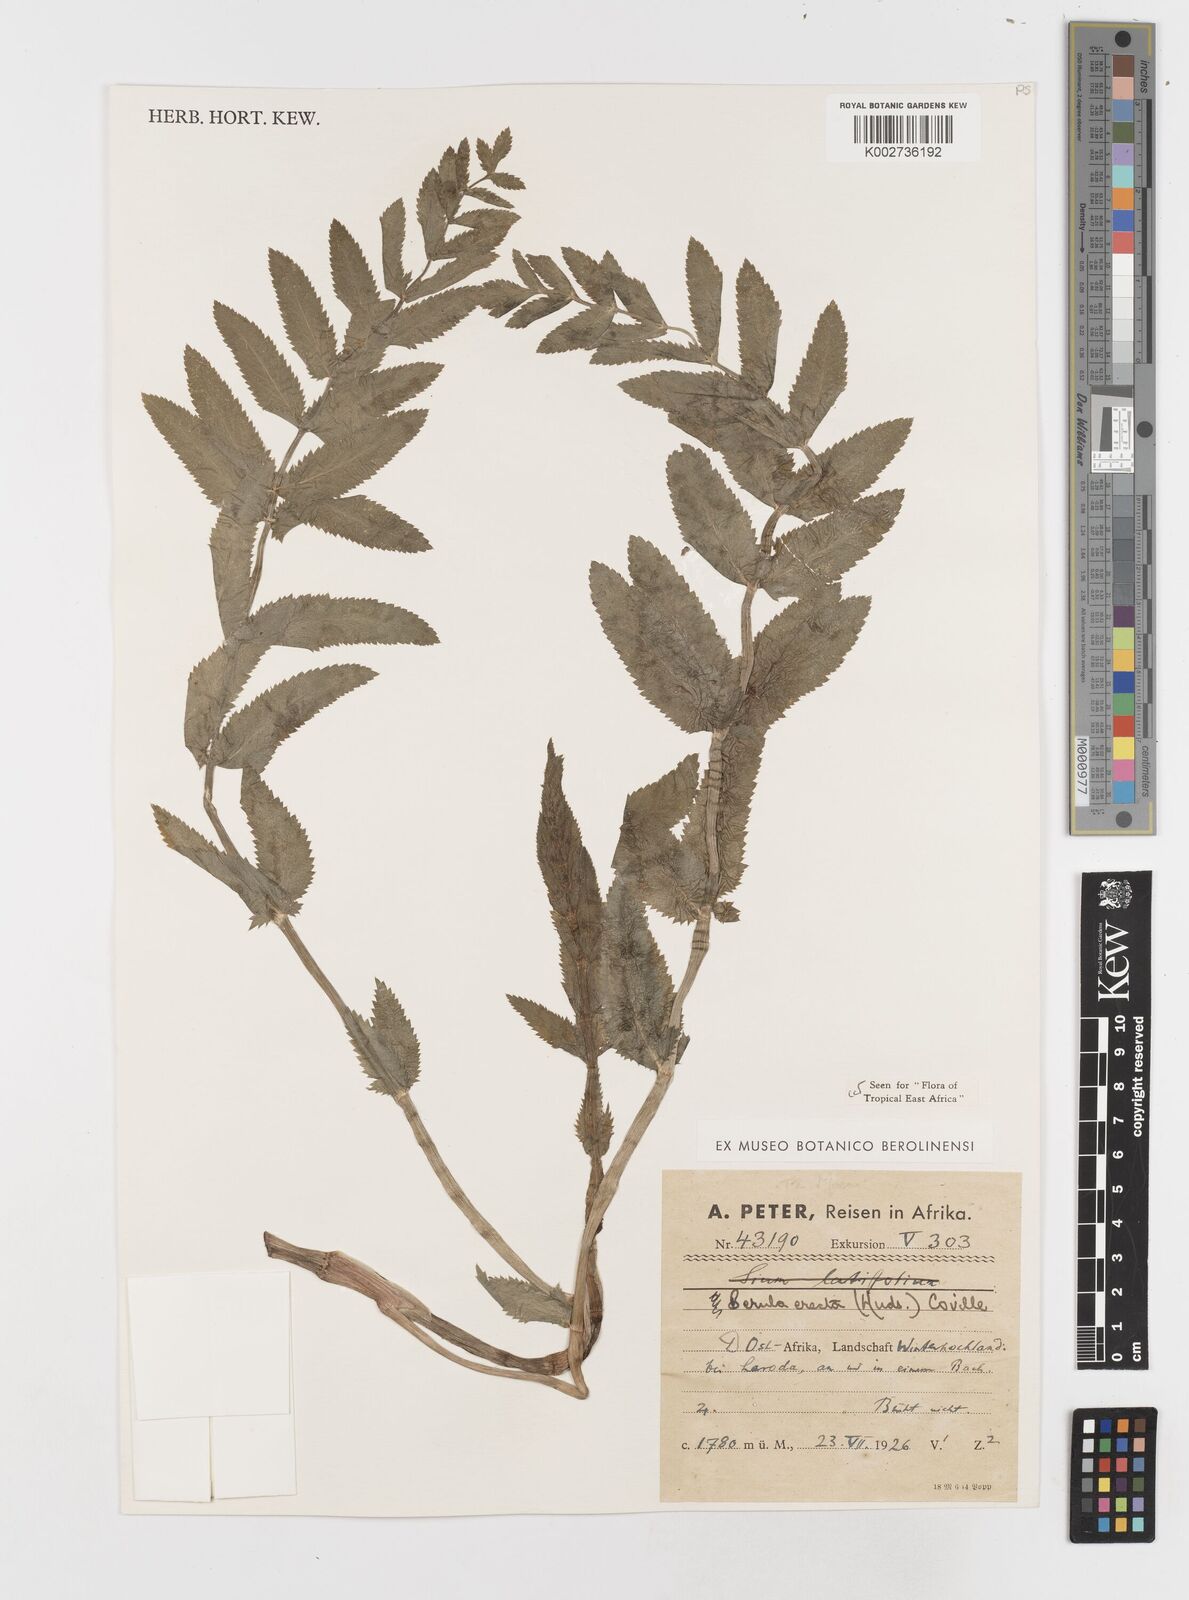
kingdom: Plantae
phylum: Tracheophyta
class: Magnoliopsida
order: Apiales
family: Apiaceae
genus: Berula
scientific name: Berula erecta
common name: Lesser water-parsnip
